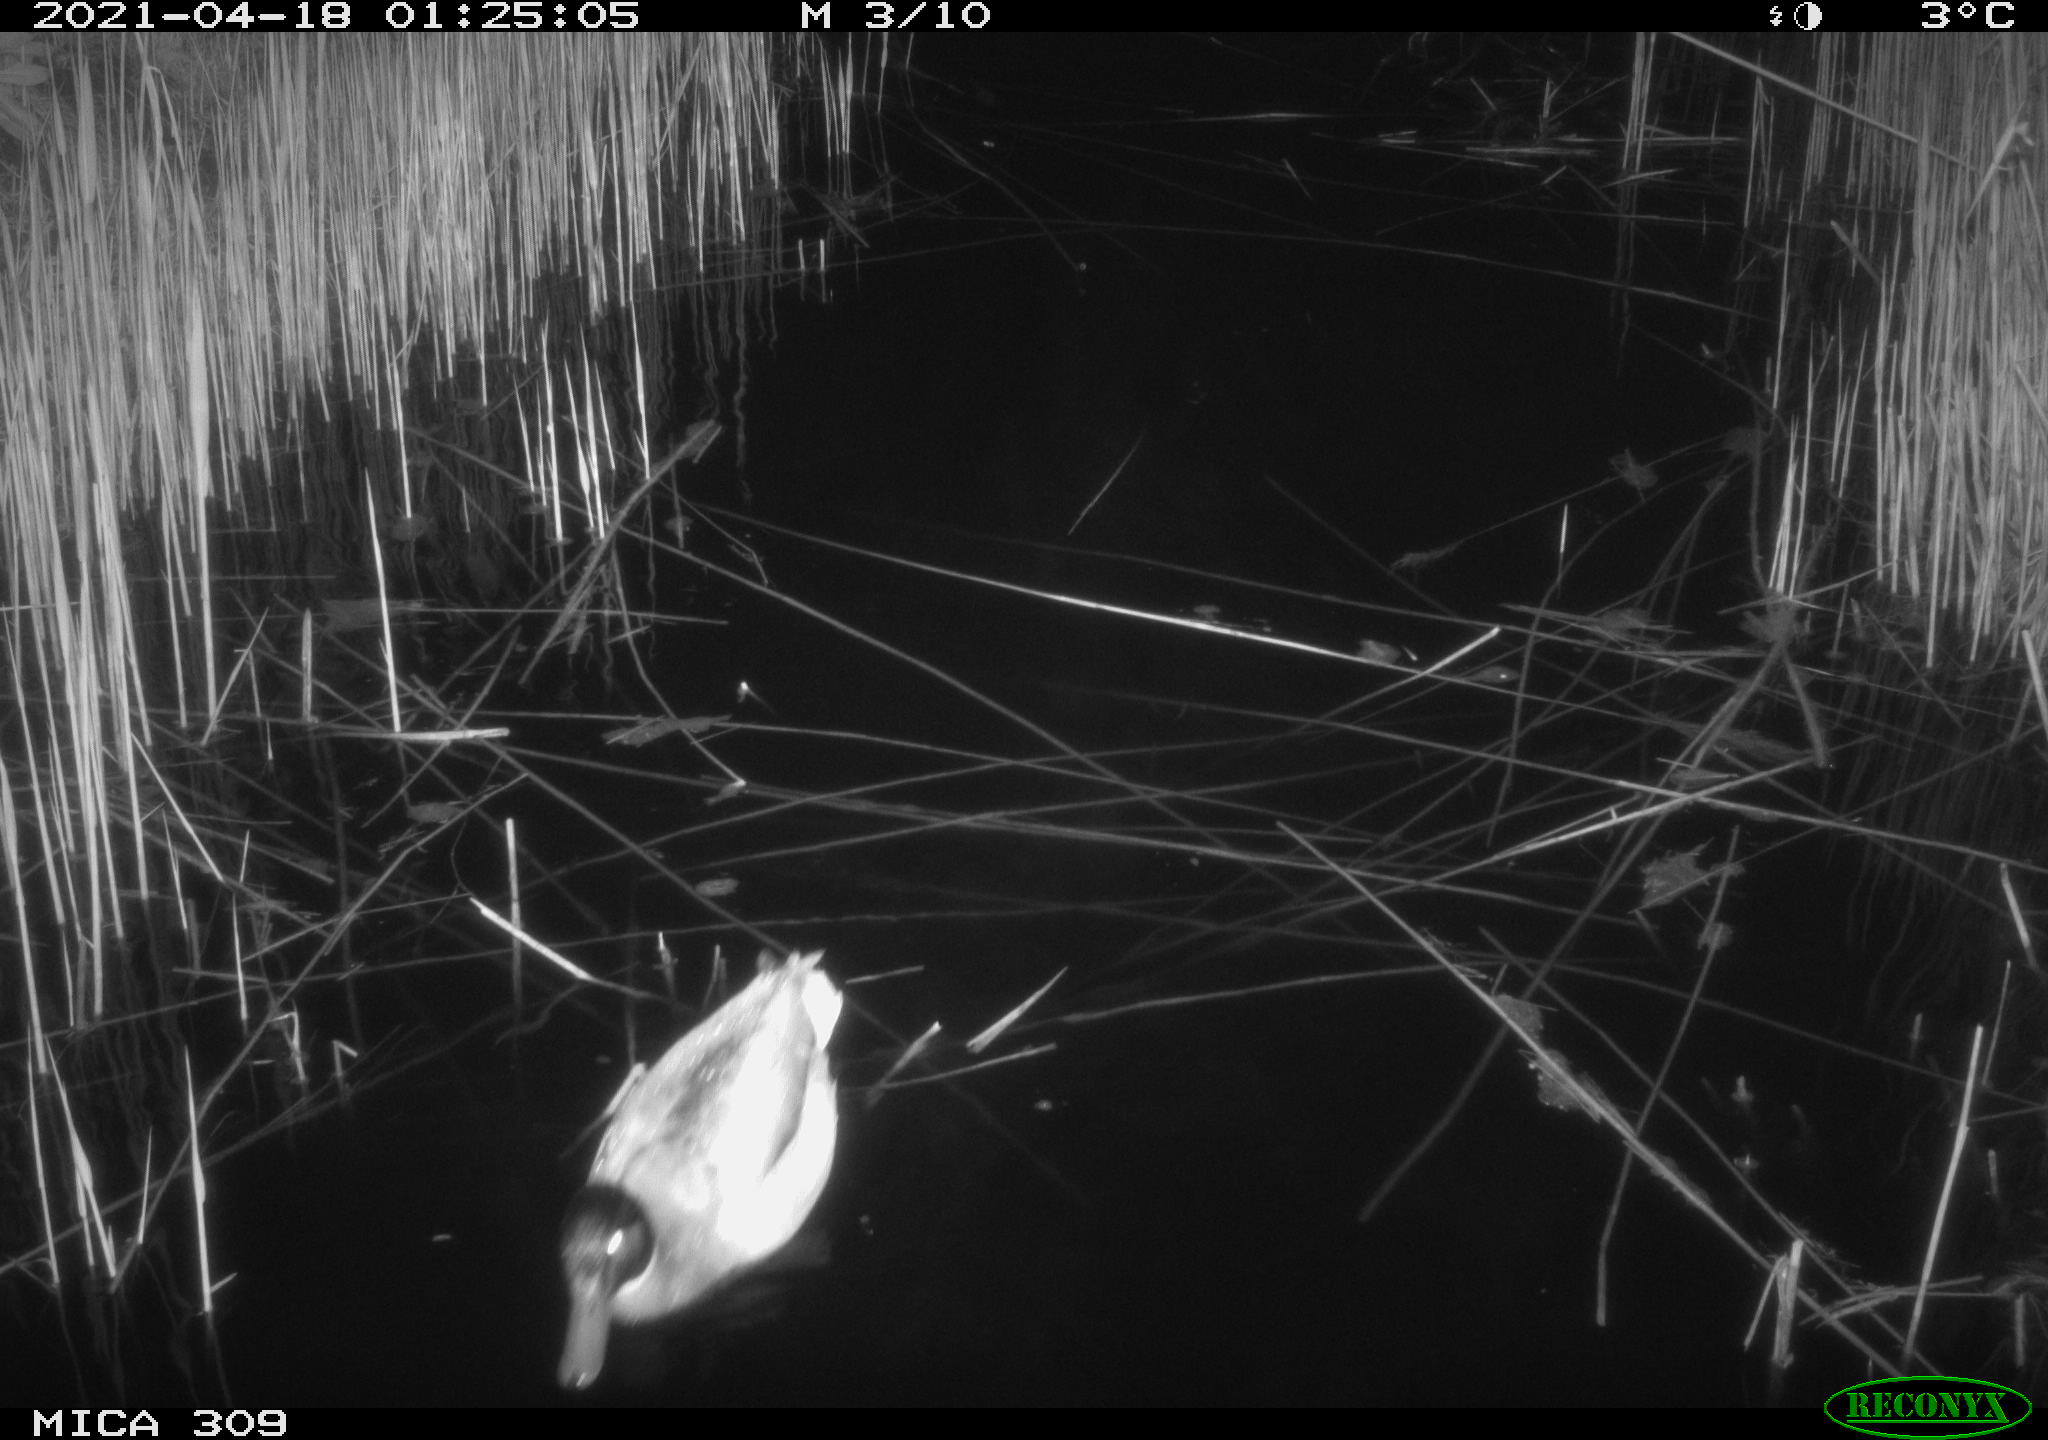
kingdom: Animalia
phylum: Chordata
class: Aves
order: Anseriformes
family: Anatidae
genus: Anas
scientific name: Anas platyrhynchos
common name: Mallard
